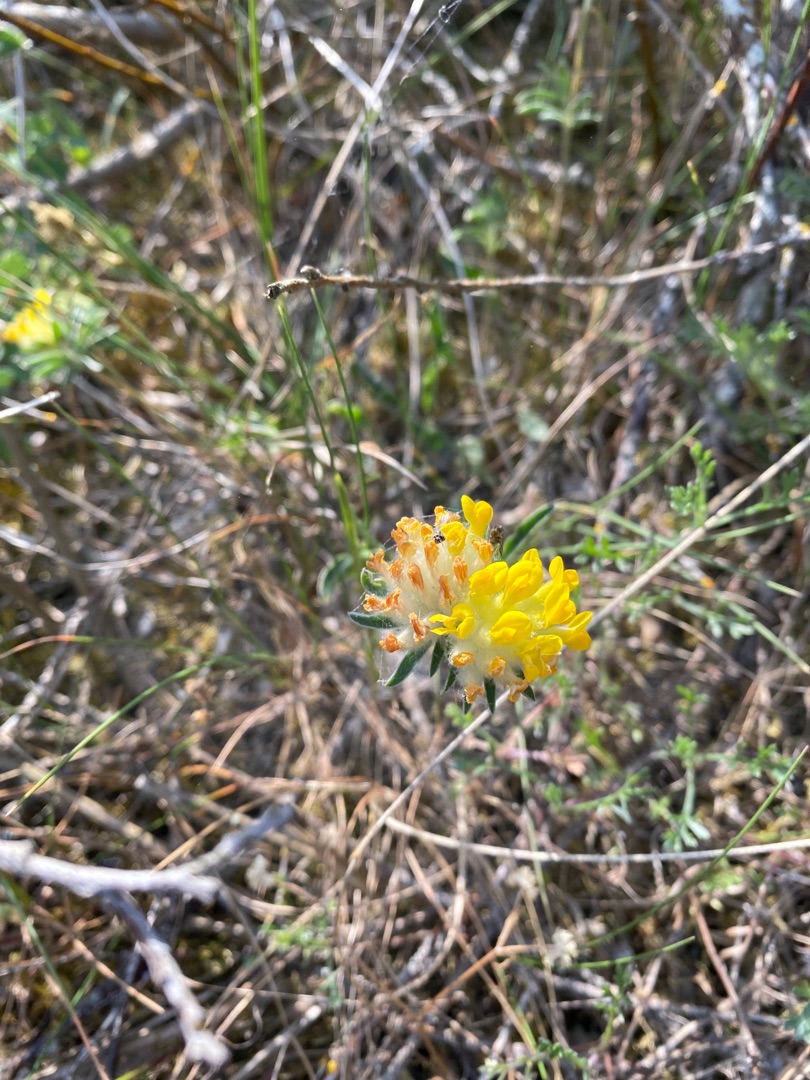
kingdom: Plantae
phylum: Tracheophyta
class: Magnoliopsida
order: Fabales
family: Fabaceae
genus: Anthyllis
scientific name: Anthyllis vulneraria
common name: Rundbælg
